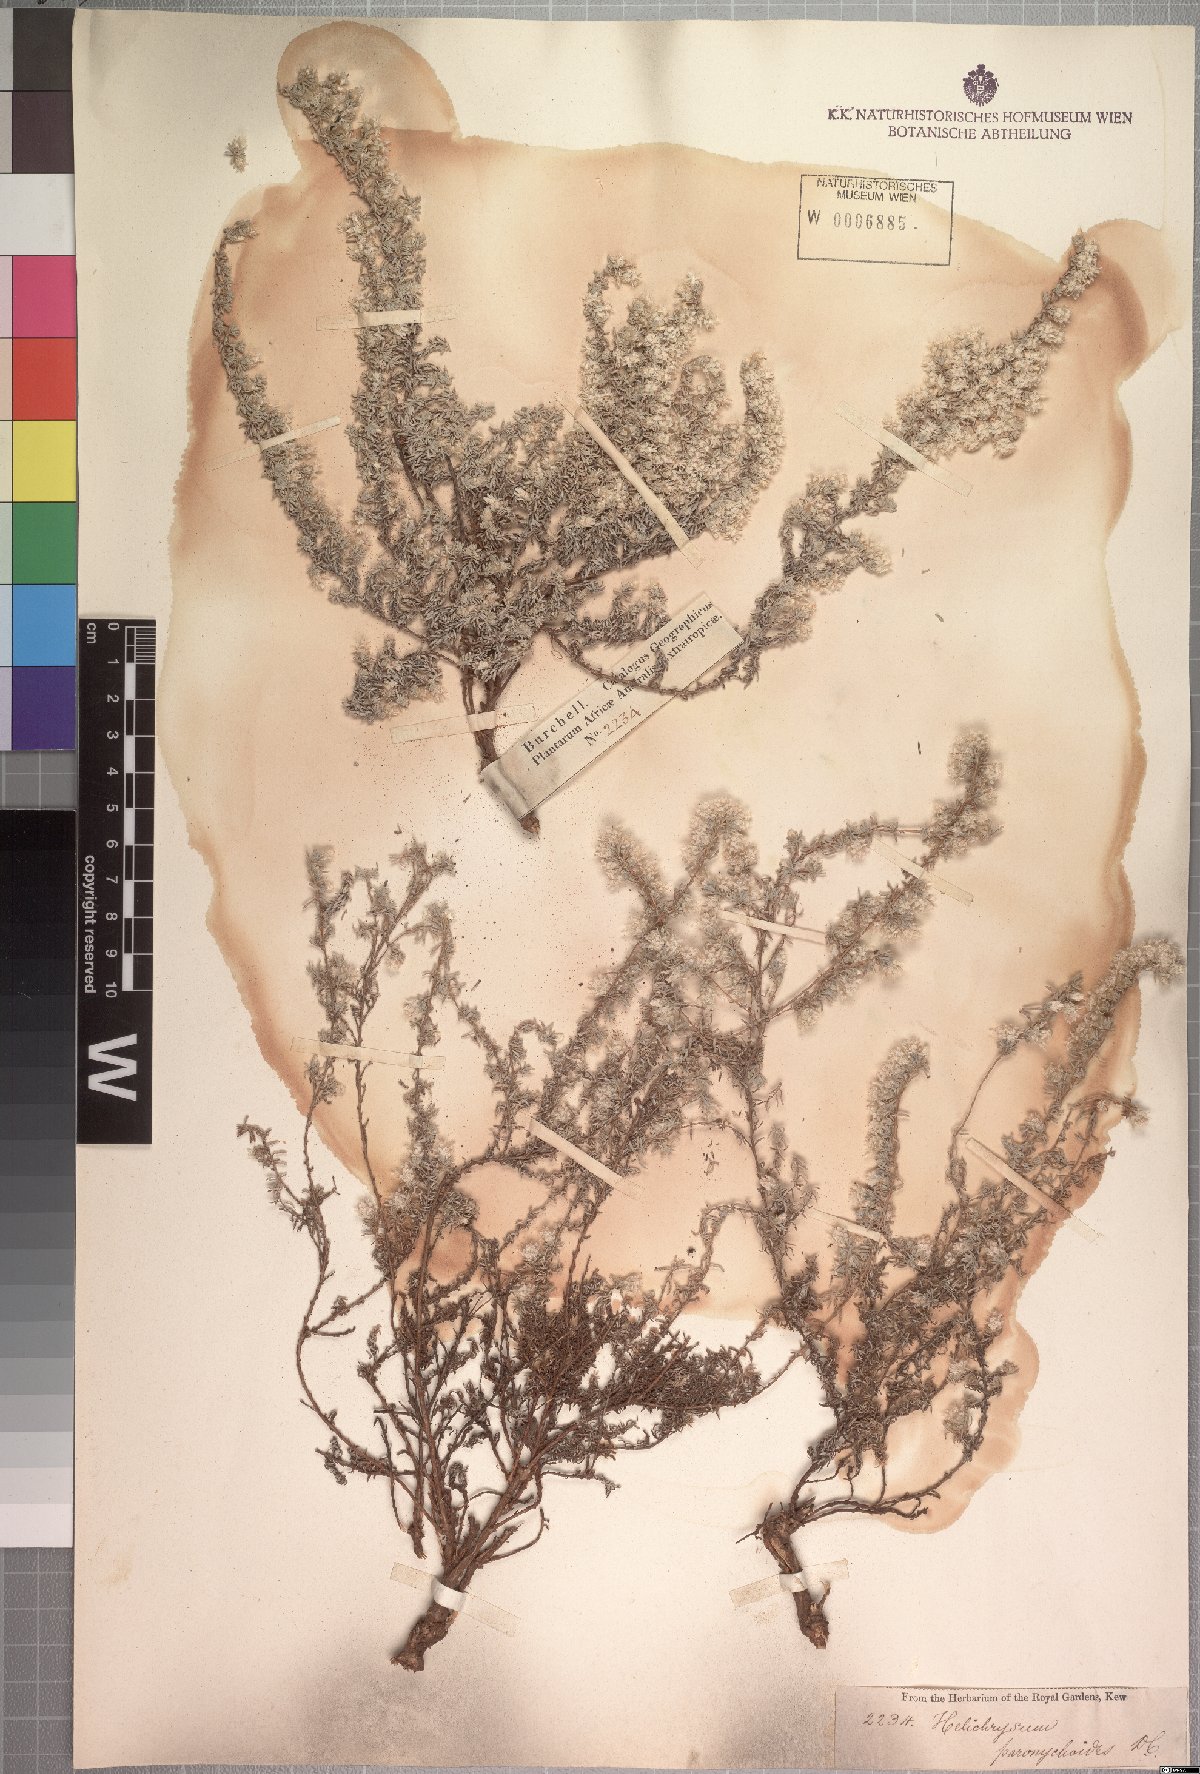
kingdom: Plantae
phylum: Tracheophyta
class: Magnoliopsida
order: Asterales
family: Asteraceae
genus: Helichrysum
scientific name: Helichrysum paronychioides
